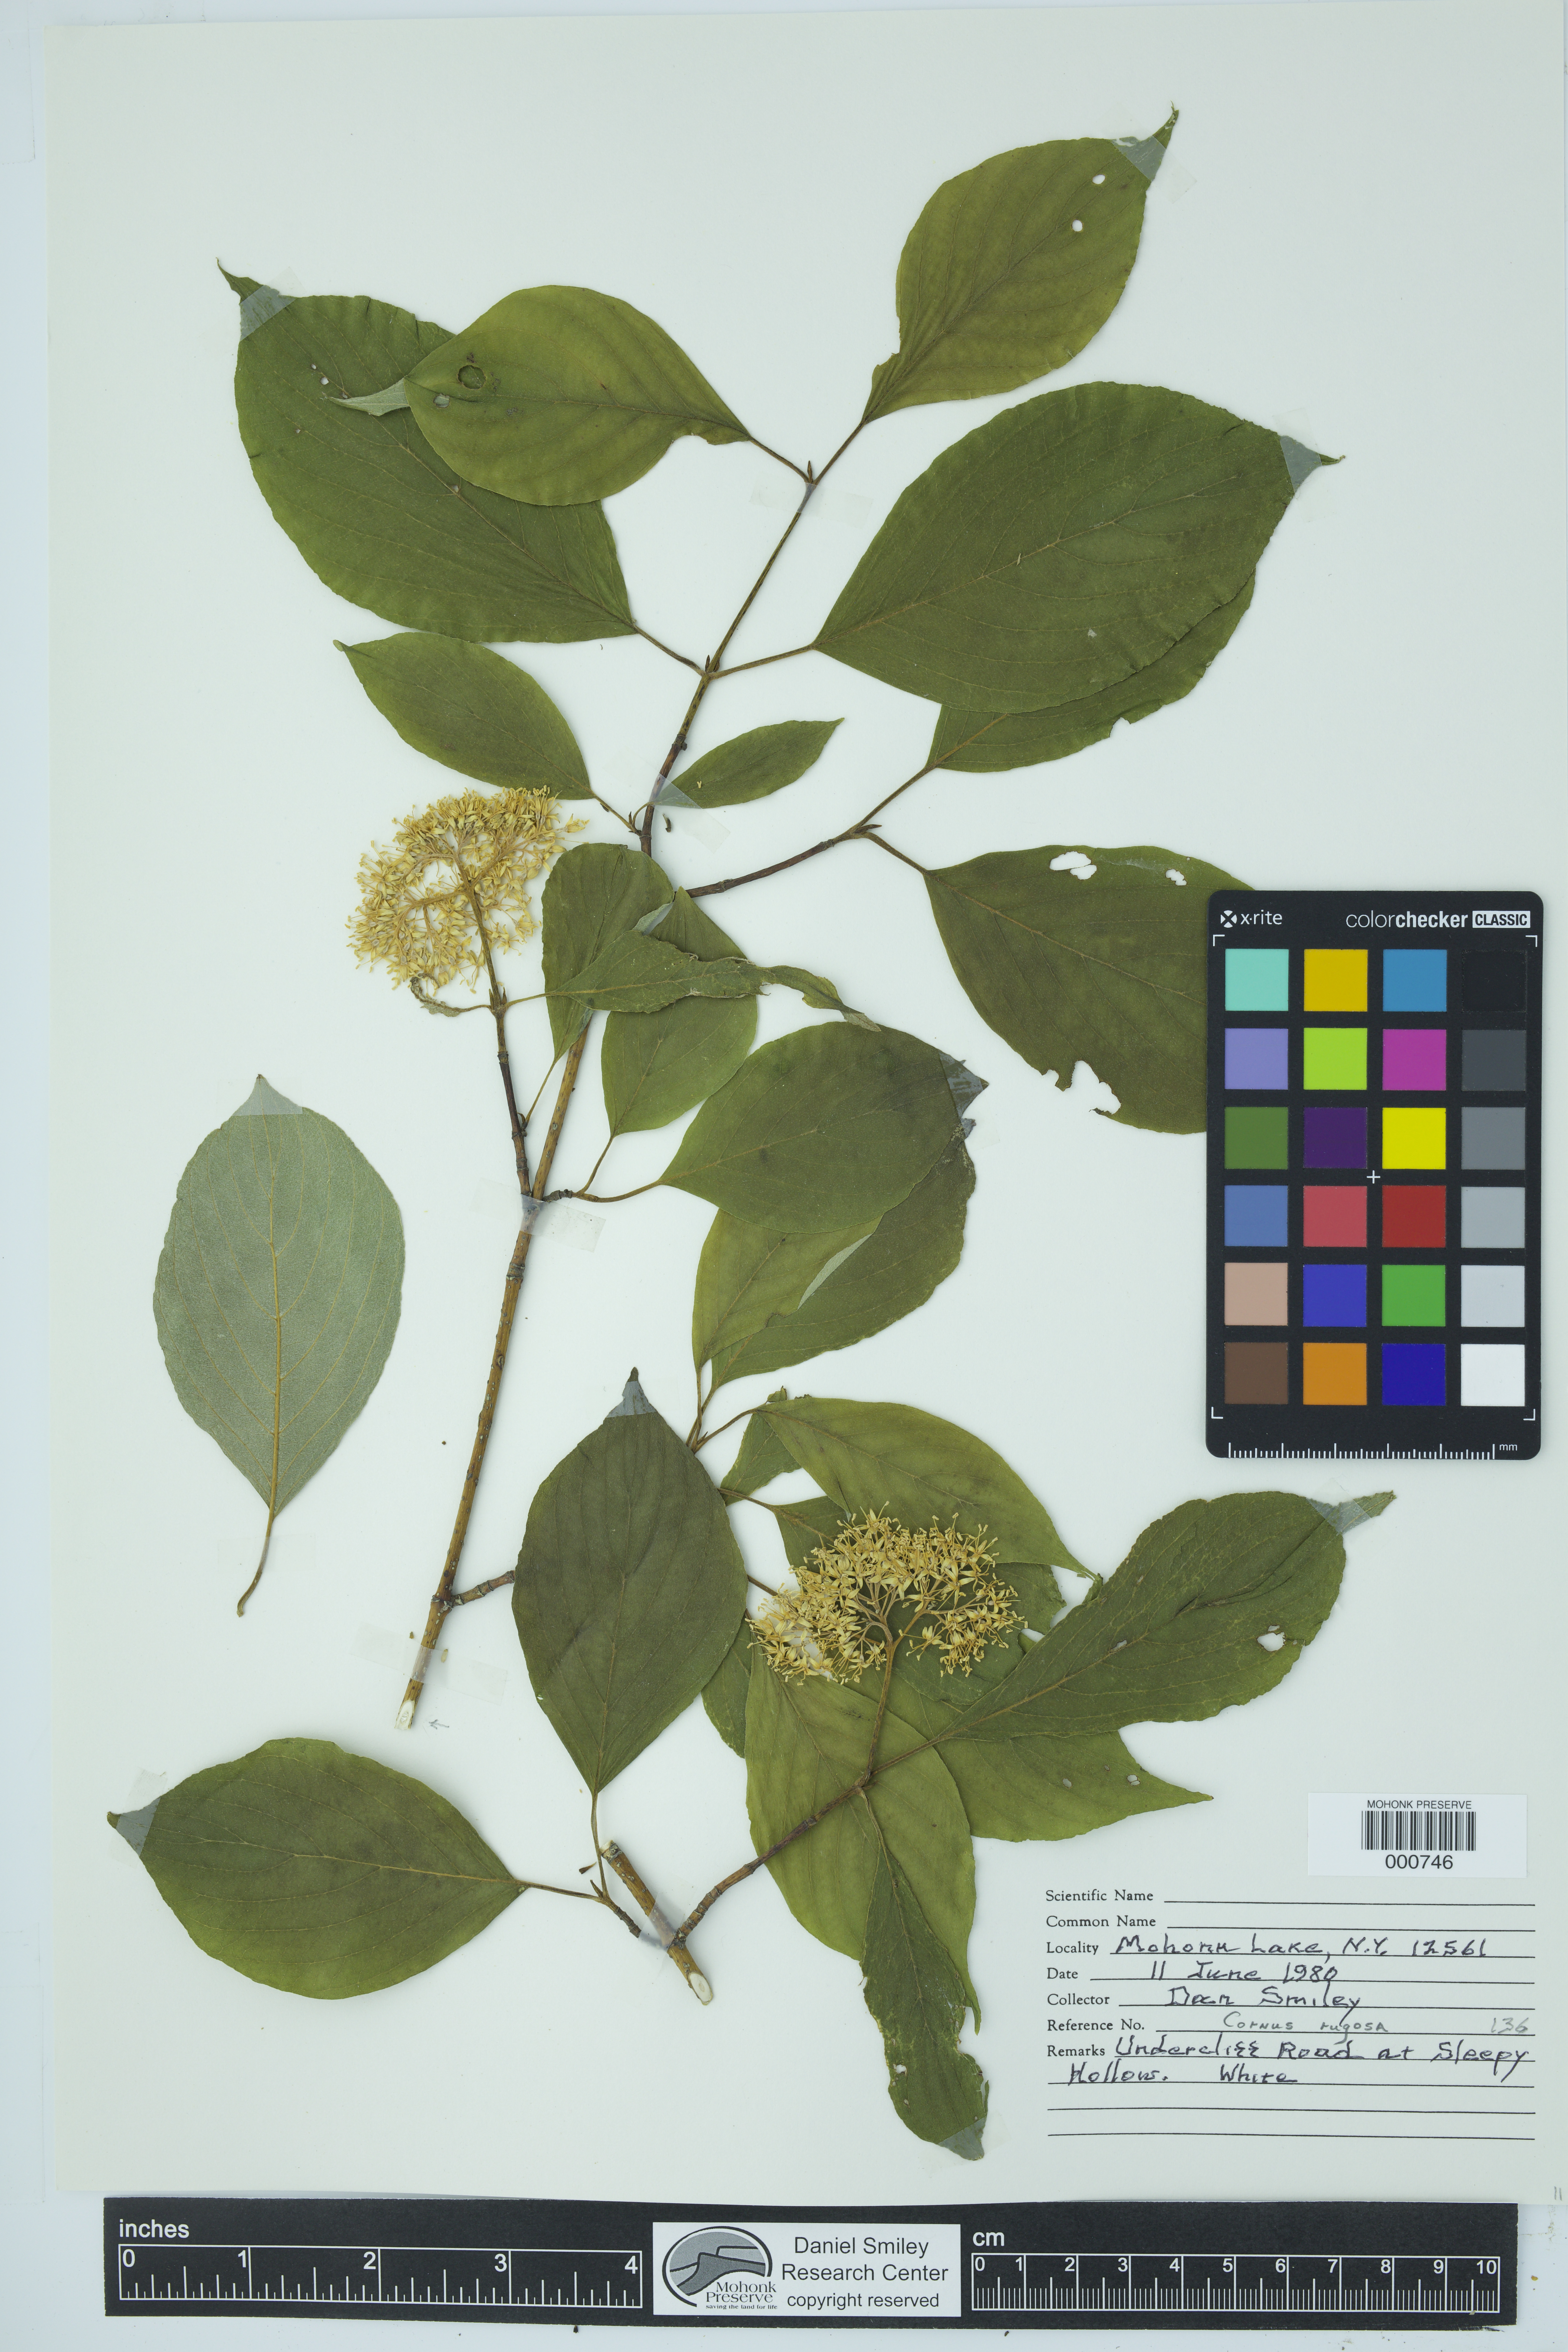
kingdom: Plantae
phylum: Tracheophyta
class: Magnoliopsida
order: Cornales
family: Cornaceae
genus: Cornus
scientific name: Cornus rugosa
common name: Round-leaf dogwood
